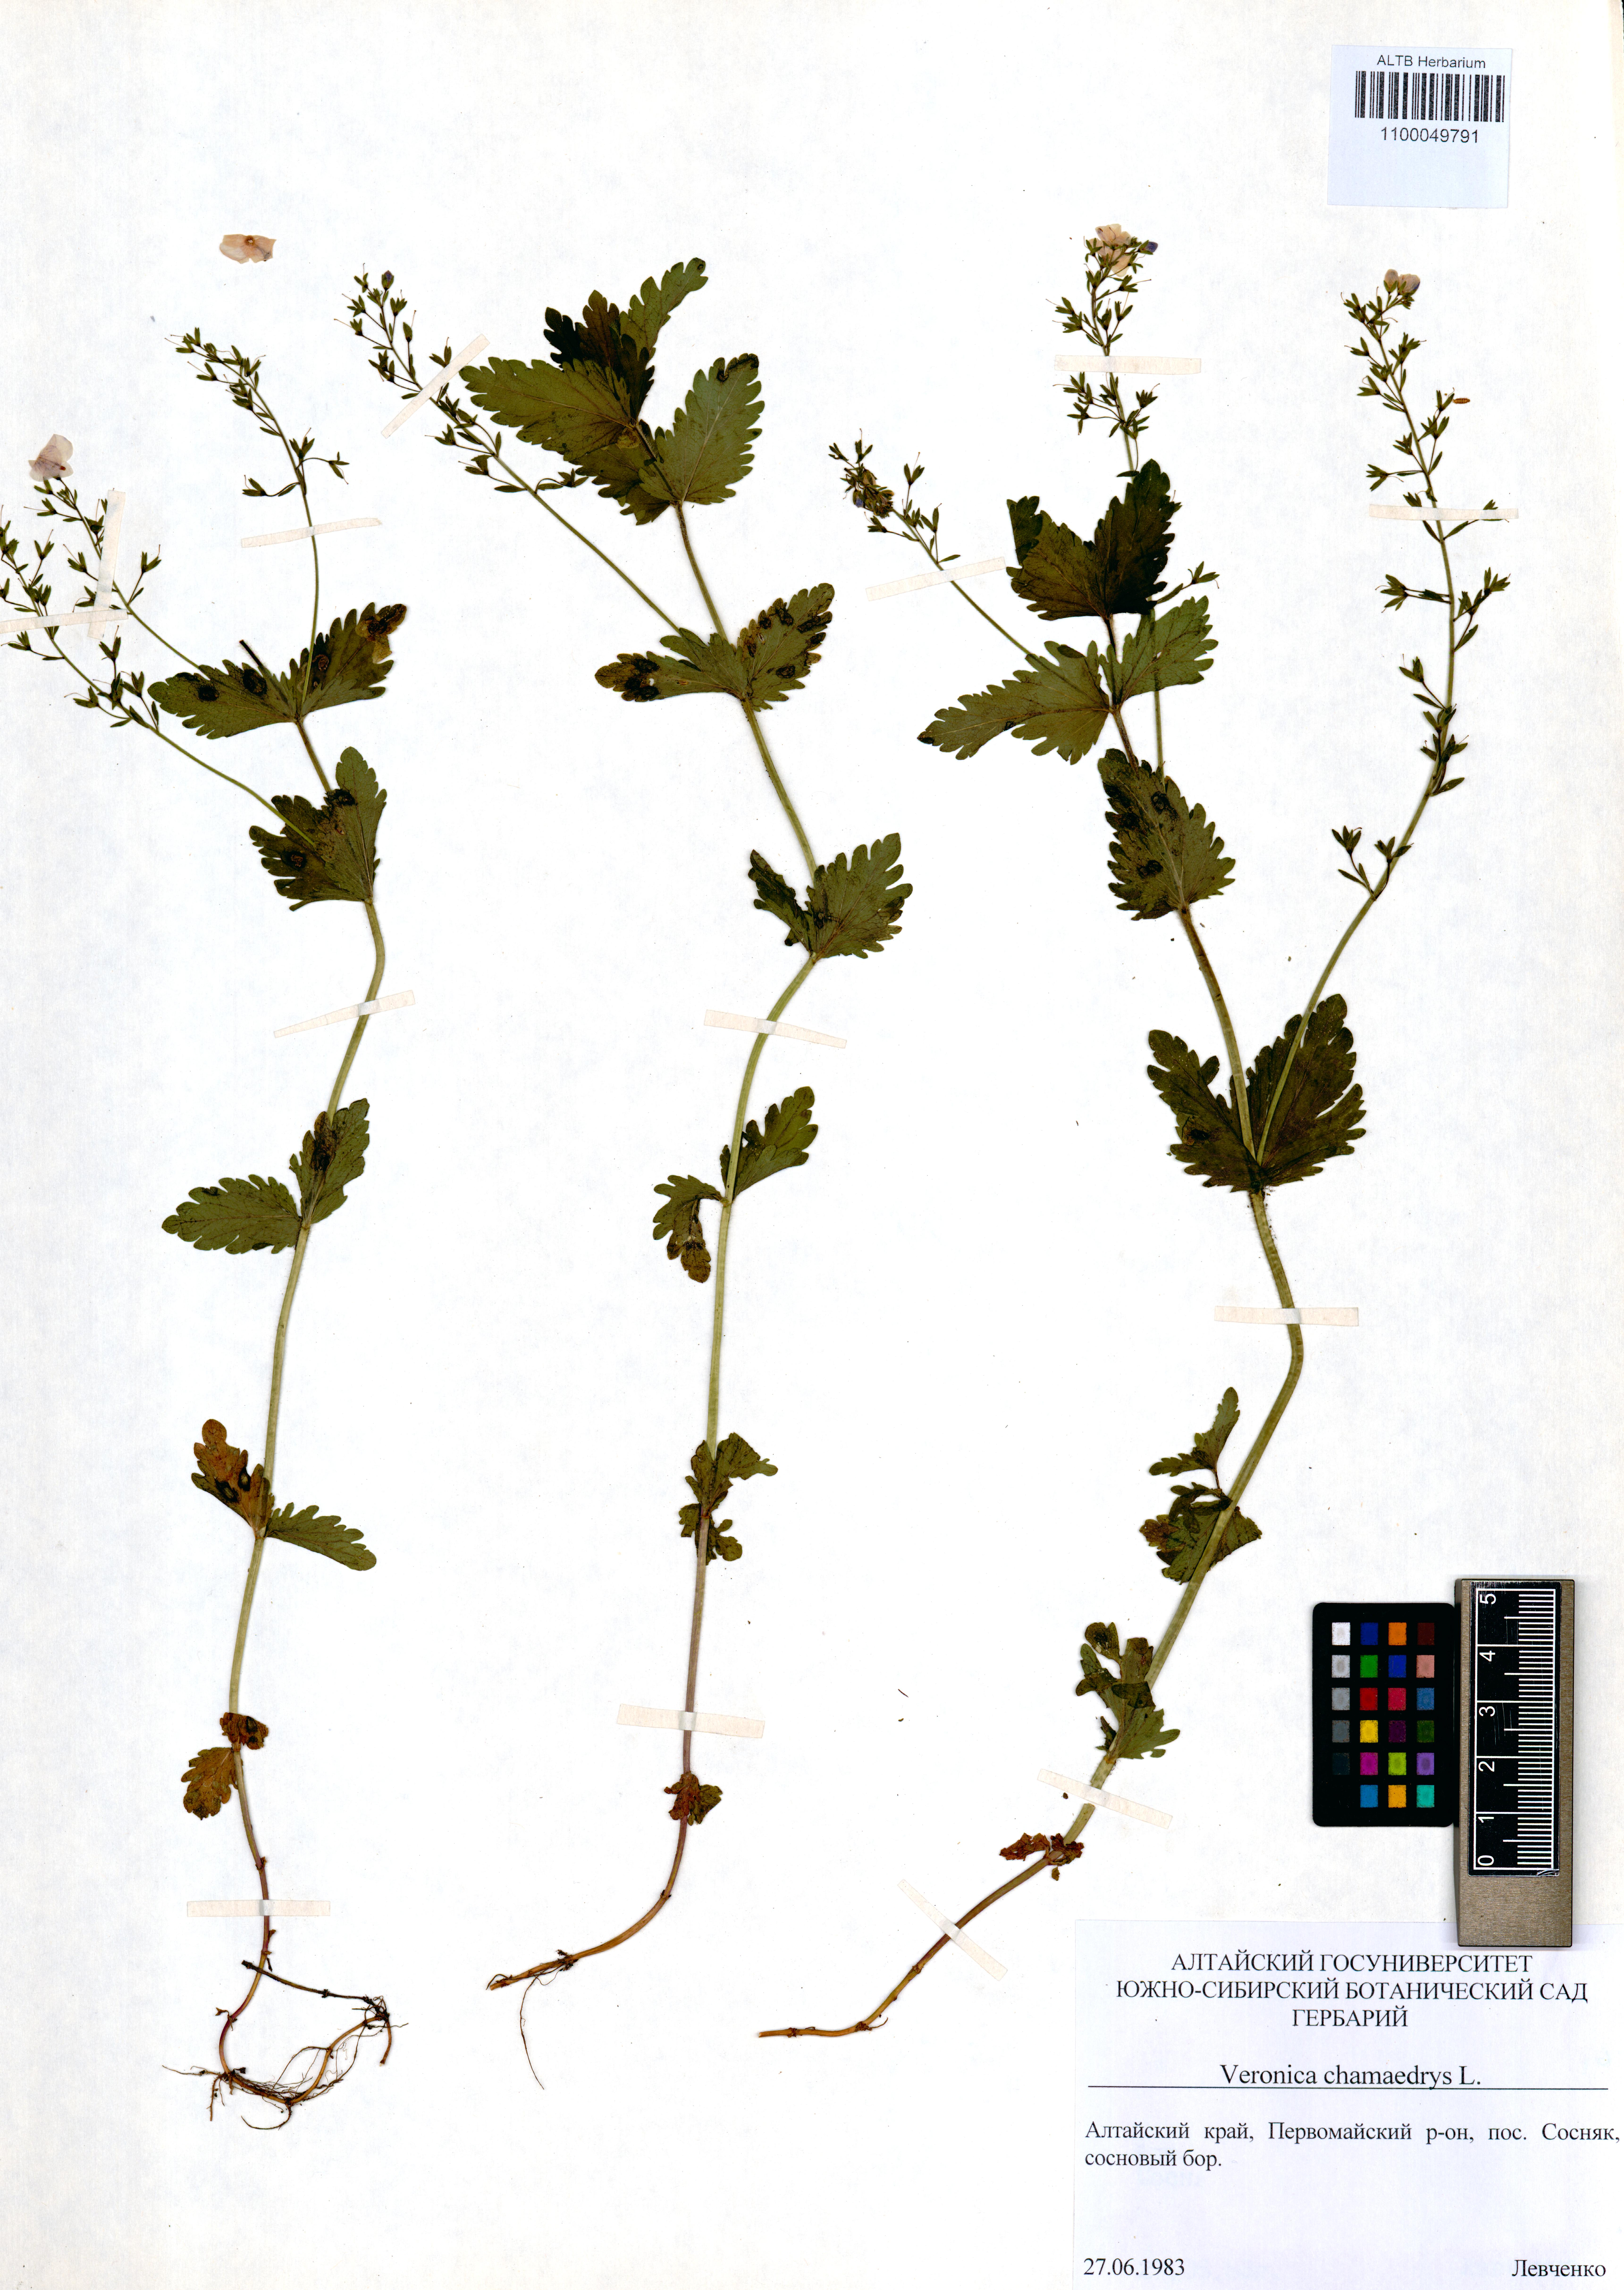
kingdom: Plantae
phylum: Tracheophyta
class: Magnoliopsida
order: Lamiales
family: Plantaginaceae
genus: Veronica
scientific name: Veronica chamaedrys
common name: Germander speedwell
